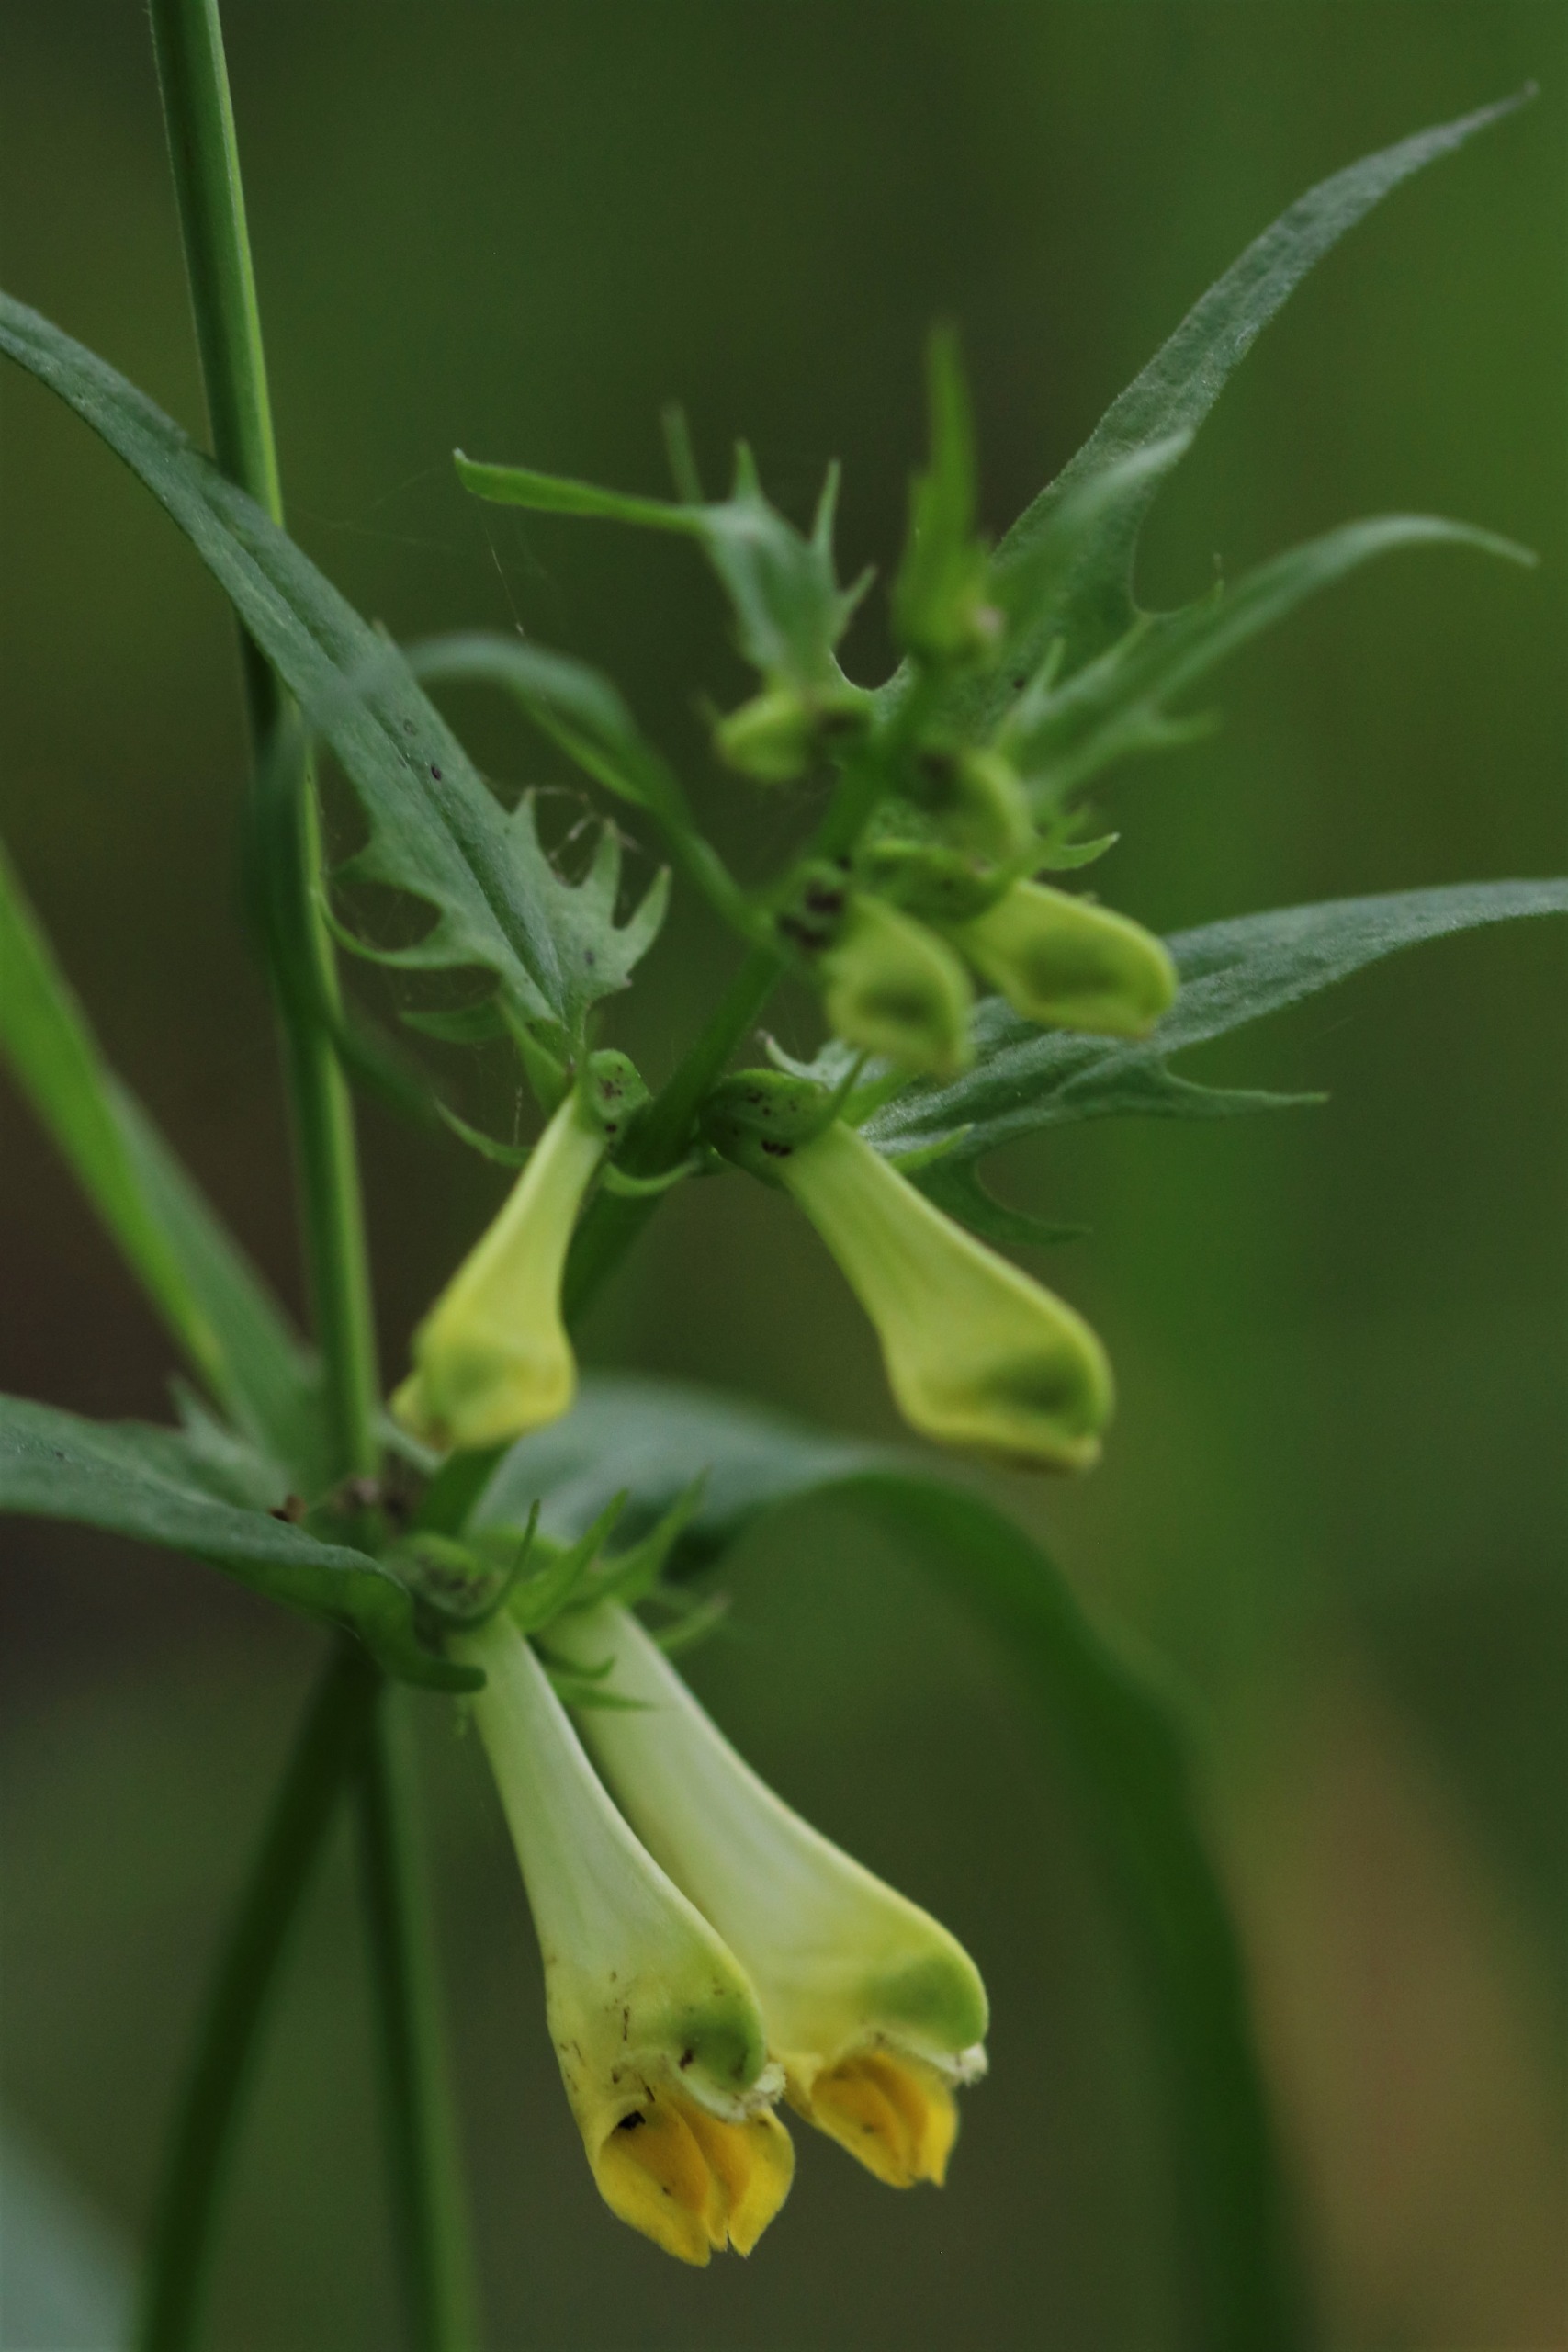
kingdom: Plantae
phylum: Tracheophyta
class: Magnoliopsida
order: Lamiales
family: Orobanchaceae
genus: Melampyrum
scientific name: Melampyrum pratense
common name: Almindelig kohvede
